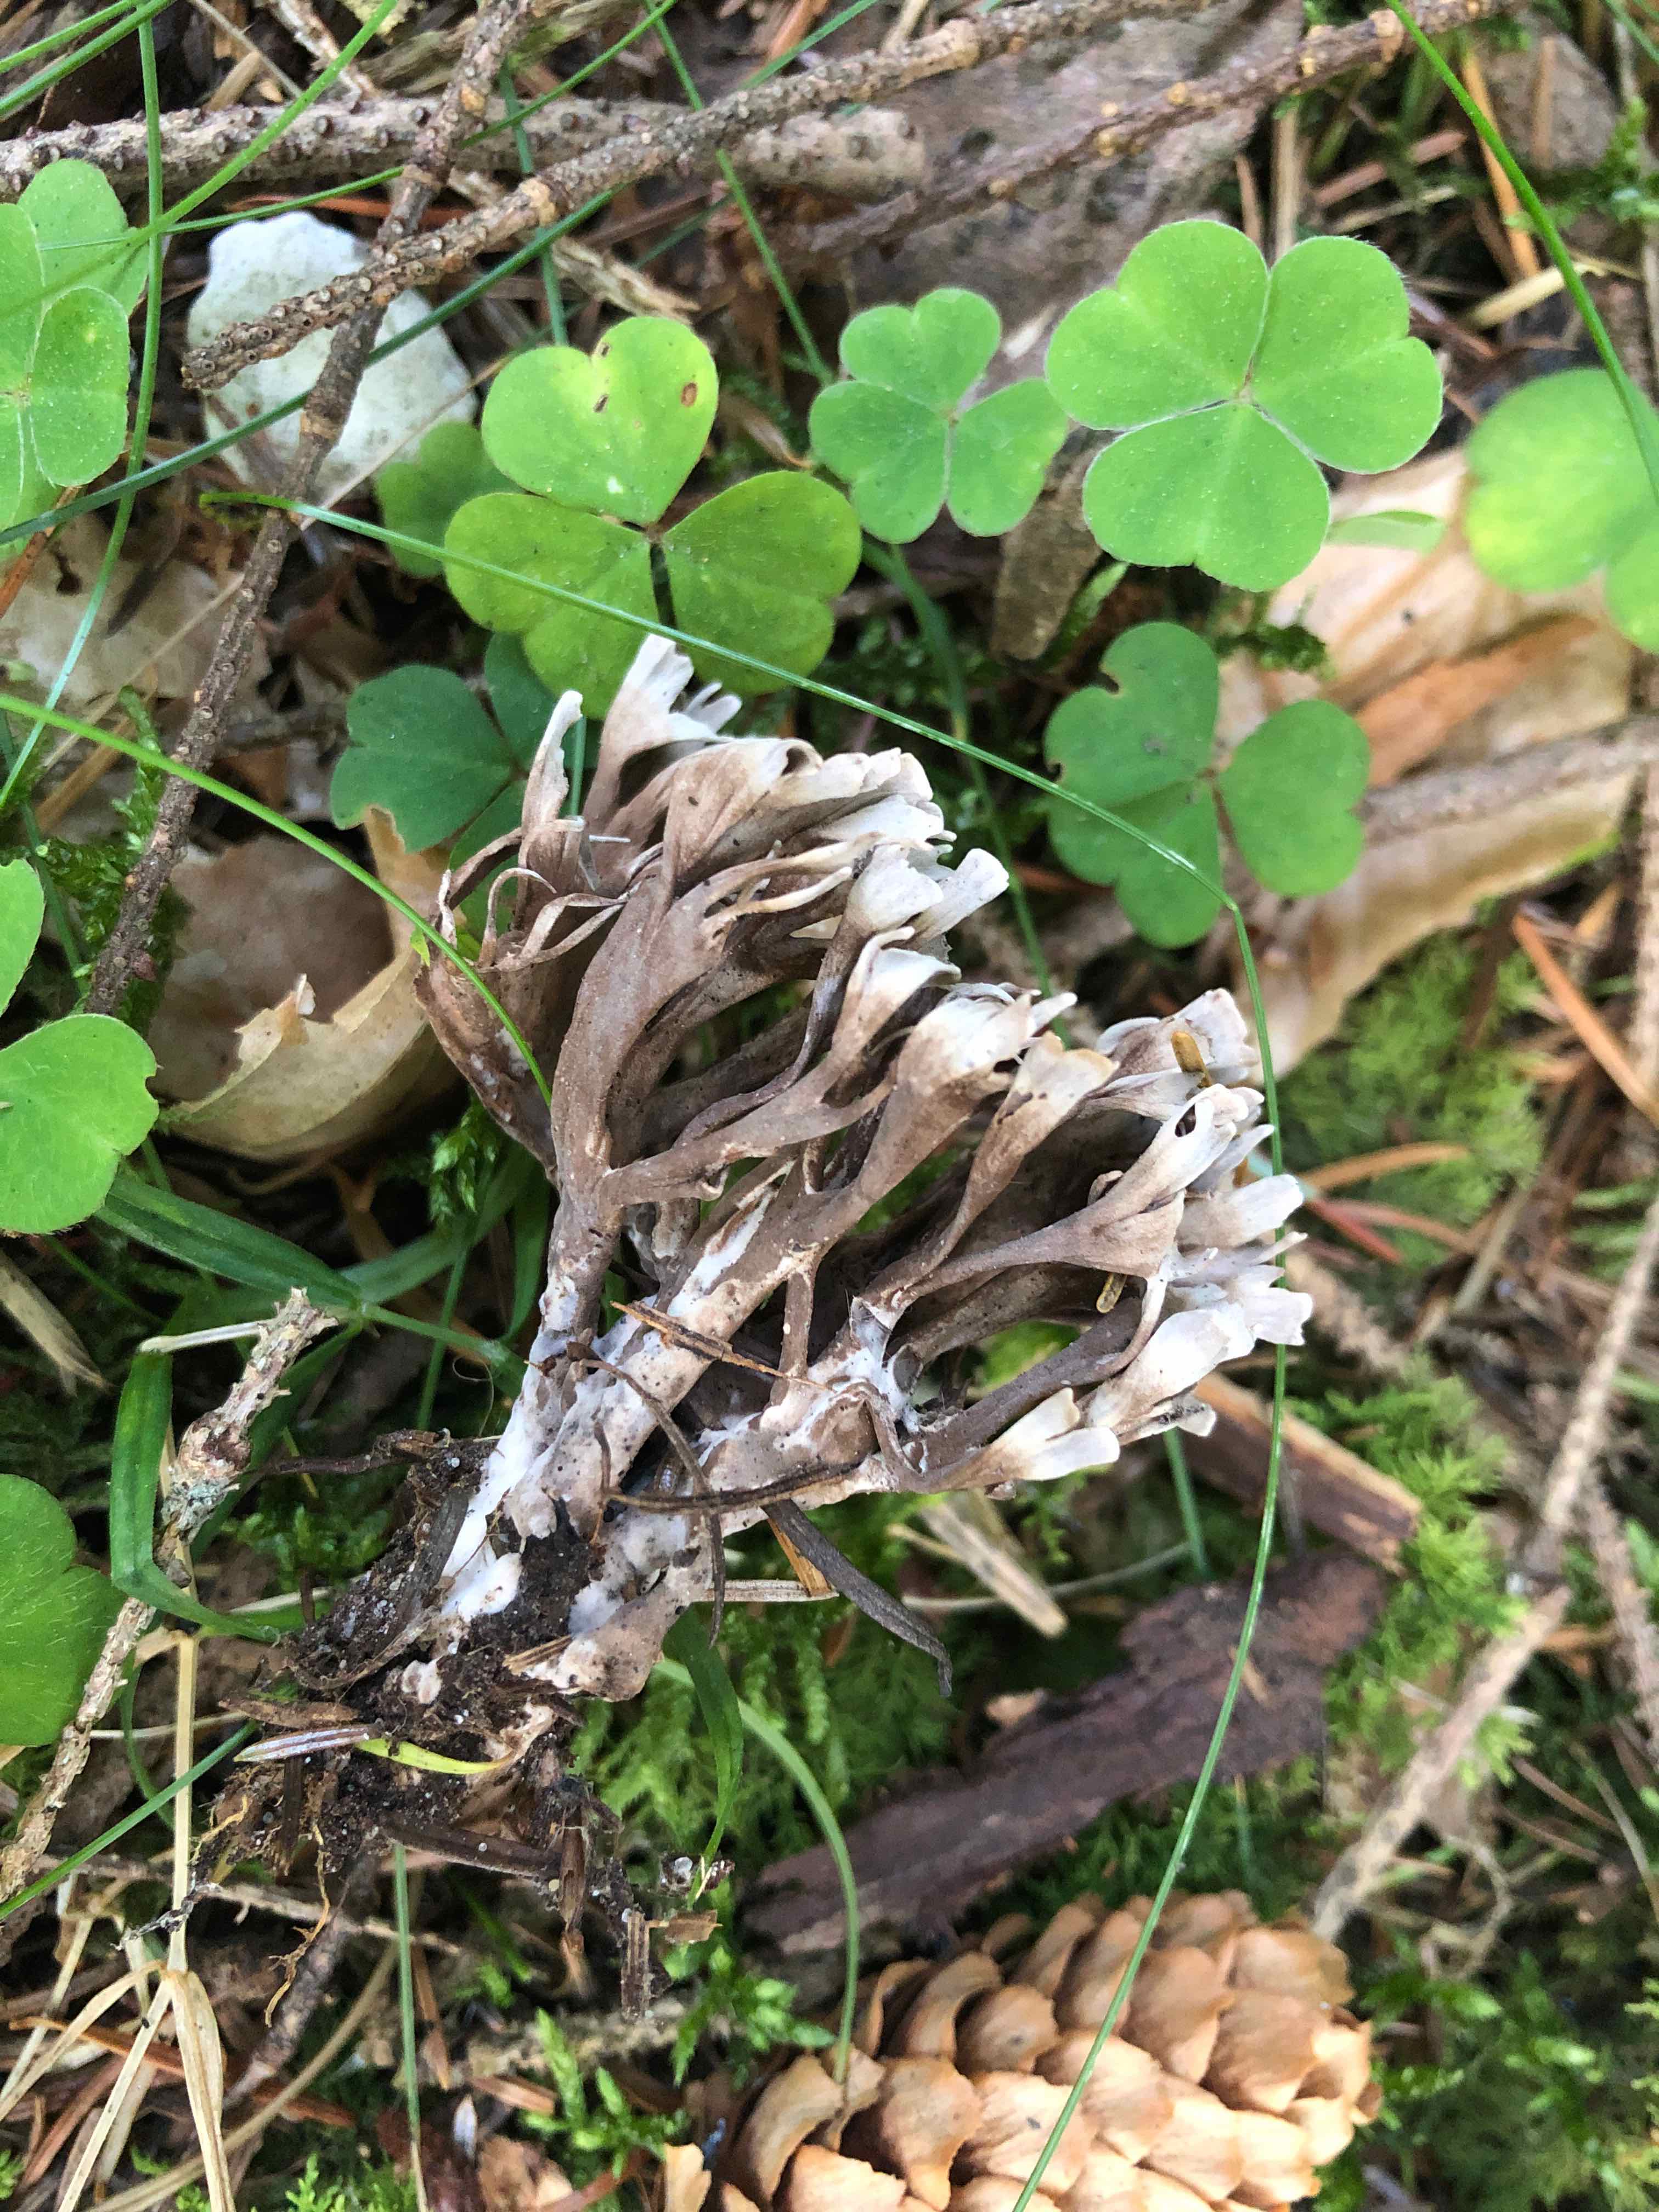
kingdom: Fungi
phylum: Basidiomycota
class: Agaricomycetes
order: Thelephorales
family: Thelephoraceae
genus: Thelephora
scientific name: Thelephora palmata
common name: grenet frynsesvamp
